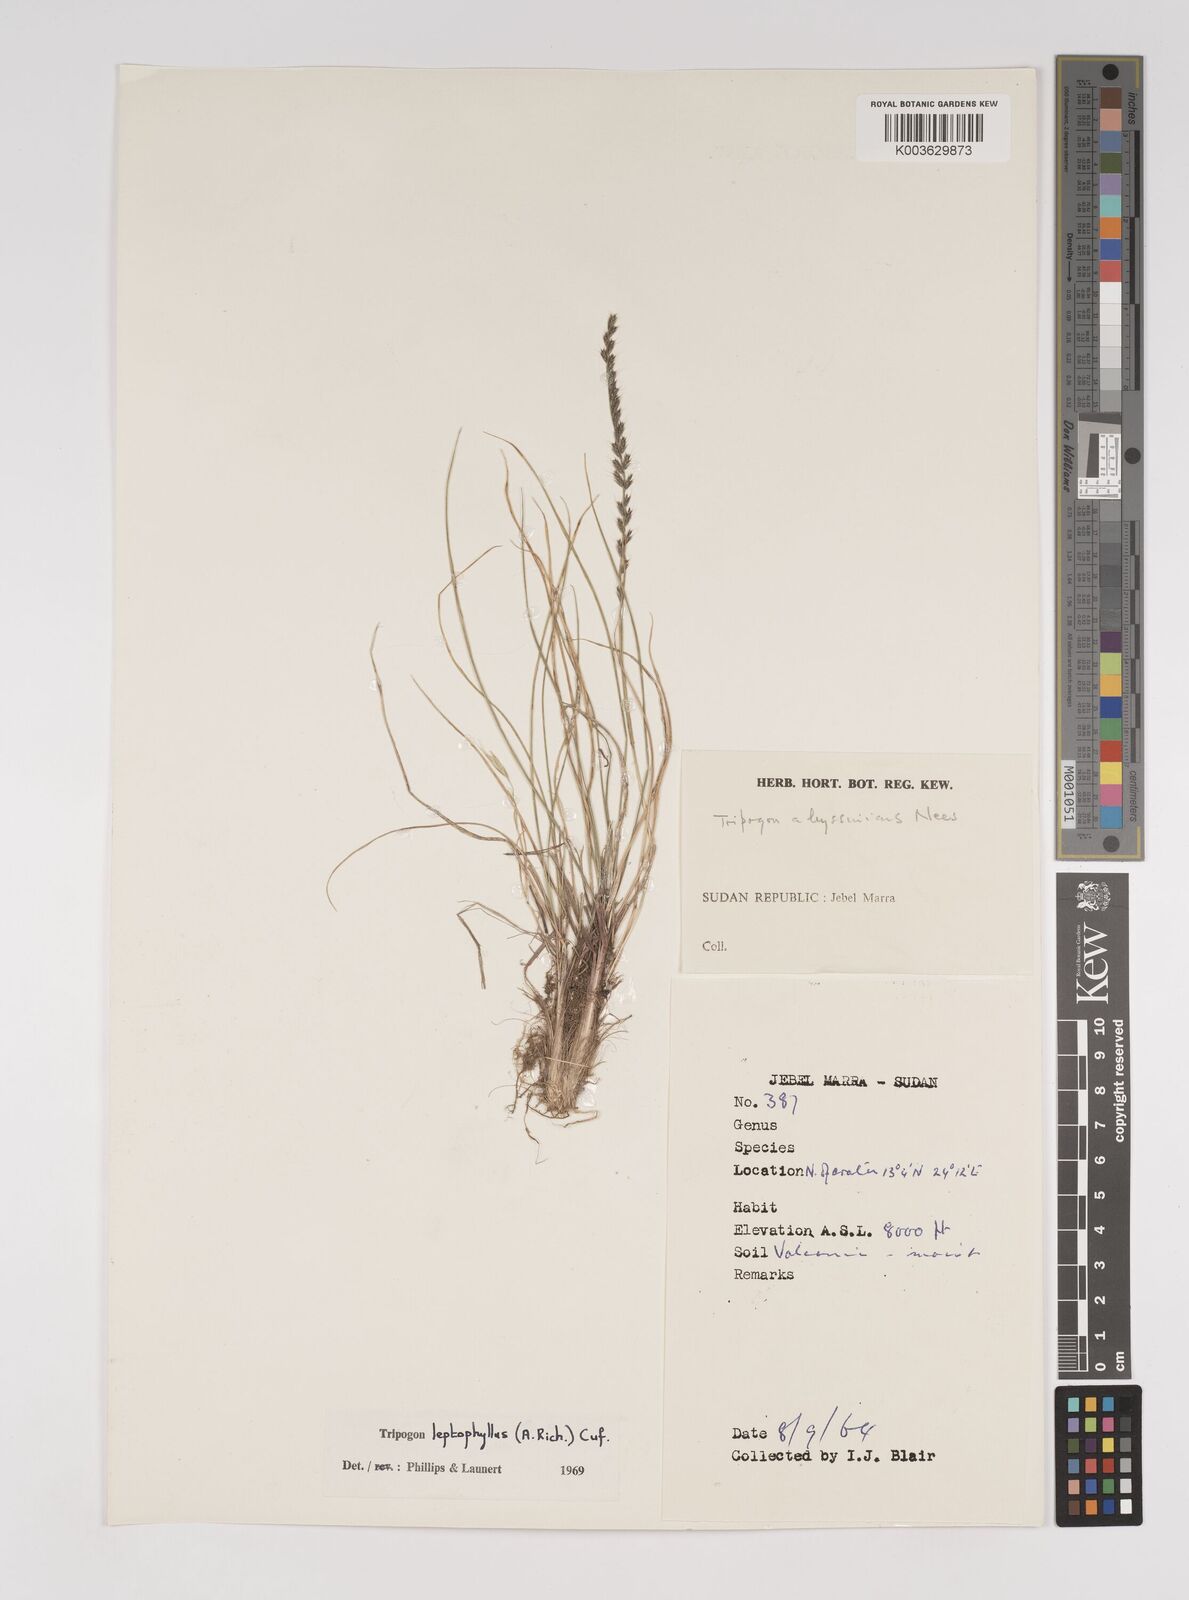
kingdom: Plantae
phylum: Tracheophyta
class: Liliopsida
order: Poales
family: Poaceae
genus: Tripogon
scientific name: Tripogon leptophyllus
